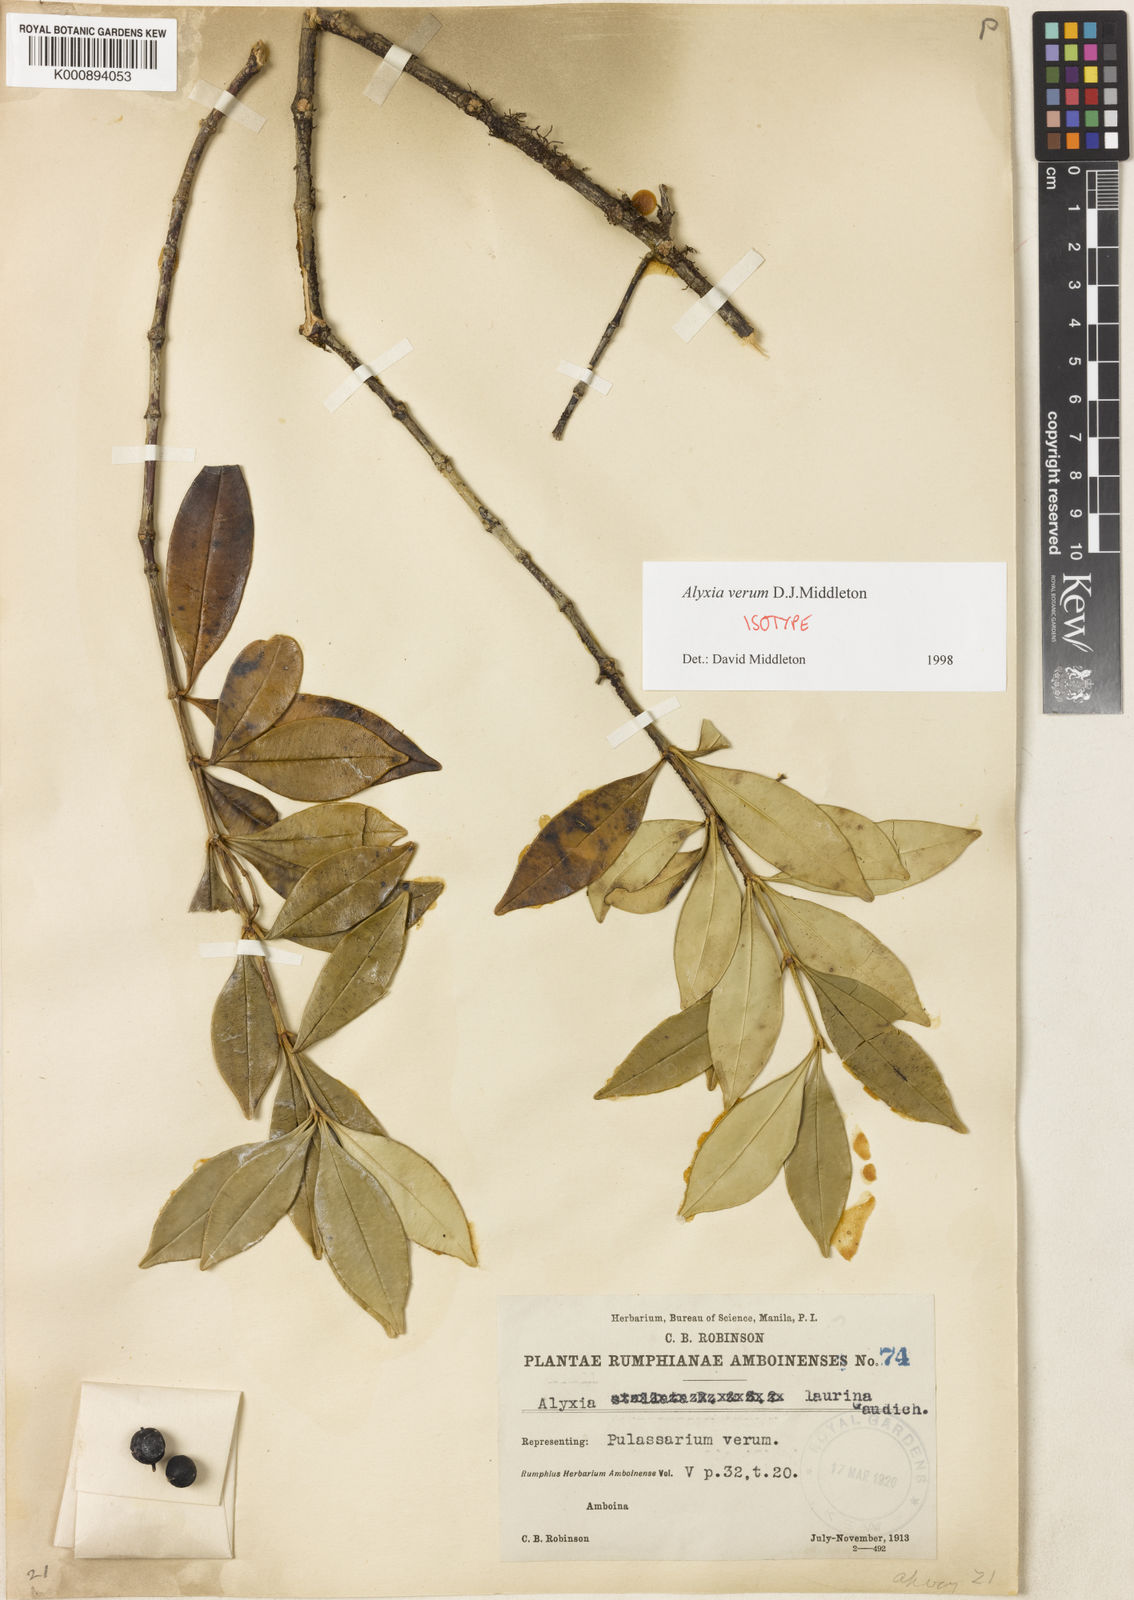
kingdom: Plantae
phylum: Tracheophyta
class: Magnoliopsida
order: Gentianales
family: Apocynaceae
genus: Alyxia
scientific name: Alyxia laurina
